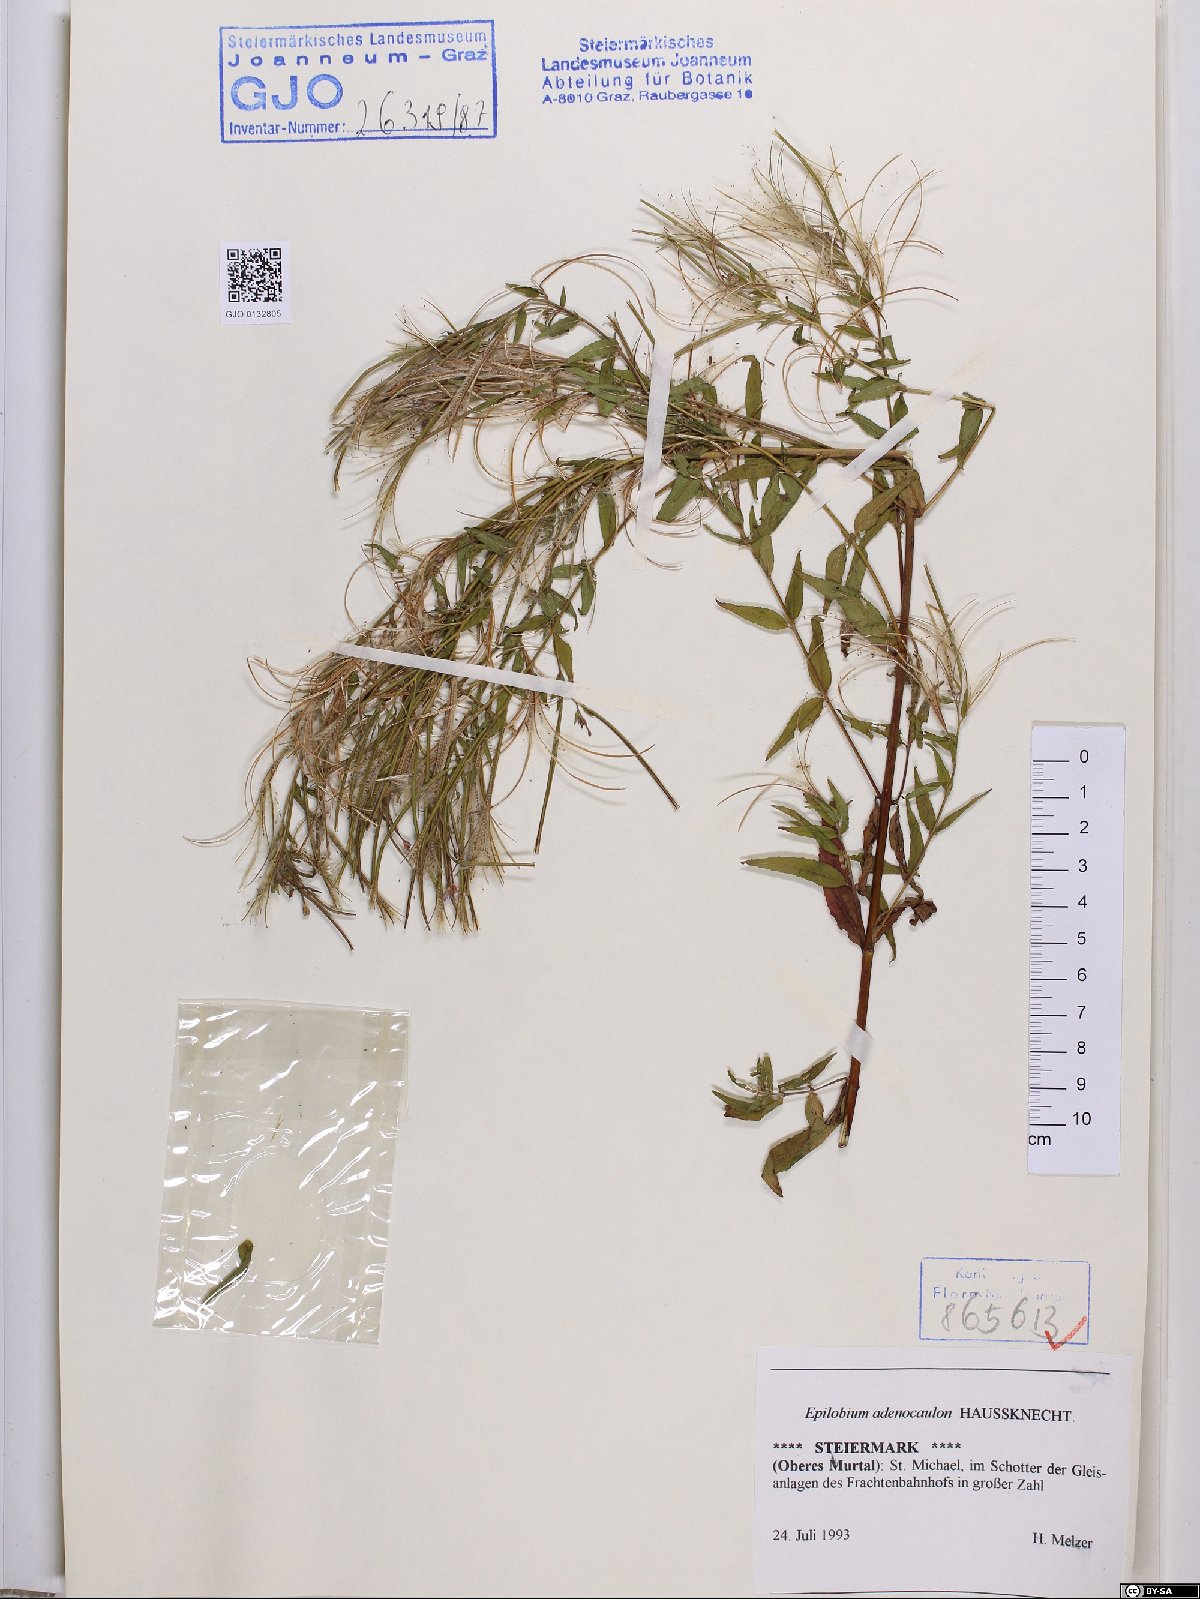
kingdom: Plantae
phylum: Tracheophyta
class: Magnoliopsida
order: Myrtales
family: Onagraceae
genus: Epilobium
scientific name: Epilobium ciliatum
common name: American willowherb
